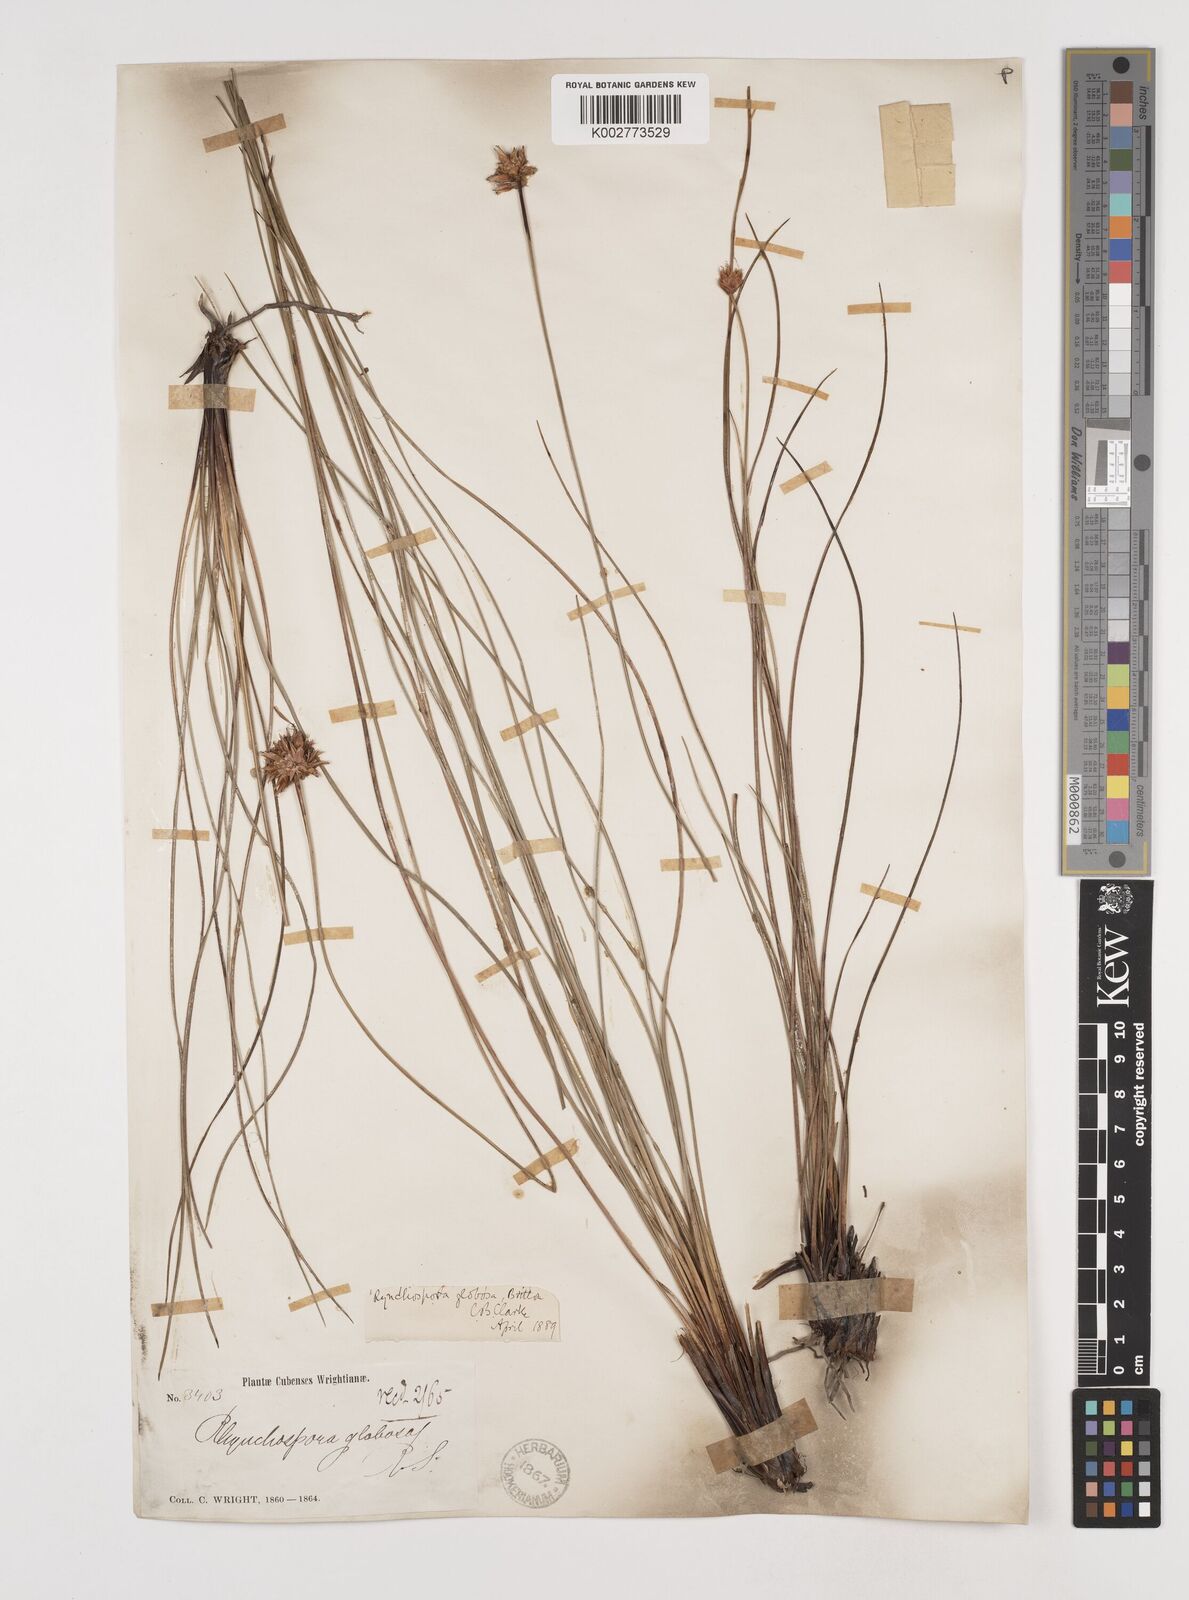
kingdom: Plantae
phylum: Tracheophyta
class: Liliopsida
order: Poales
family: Cyperaceae
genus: Rhynchospora
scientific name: Rhynchospora globosa
